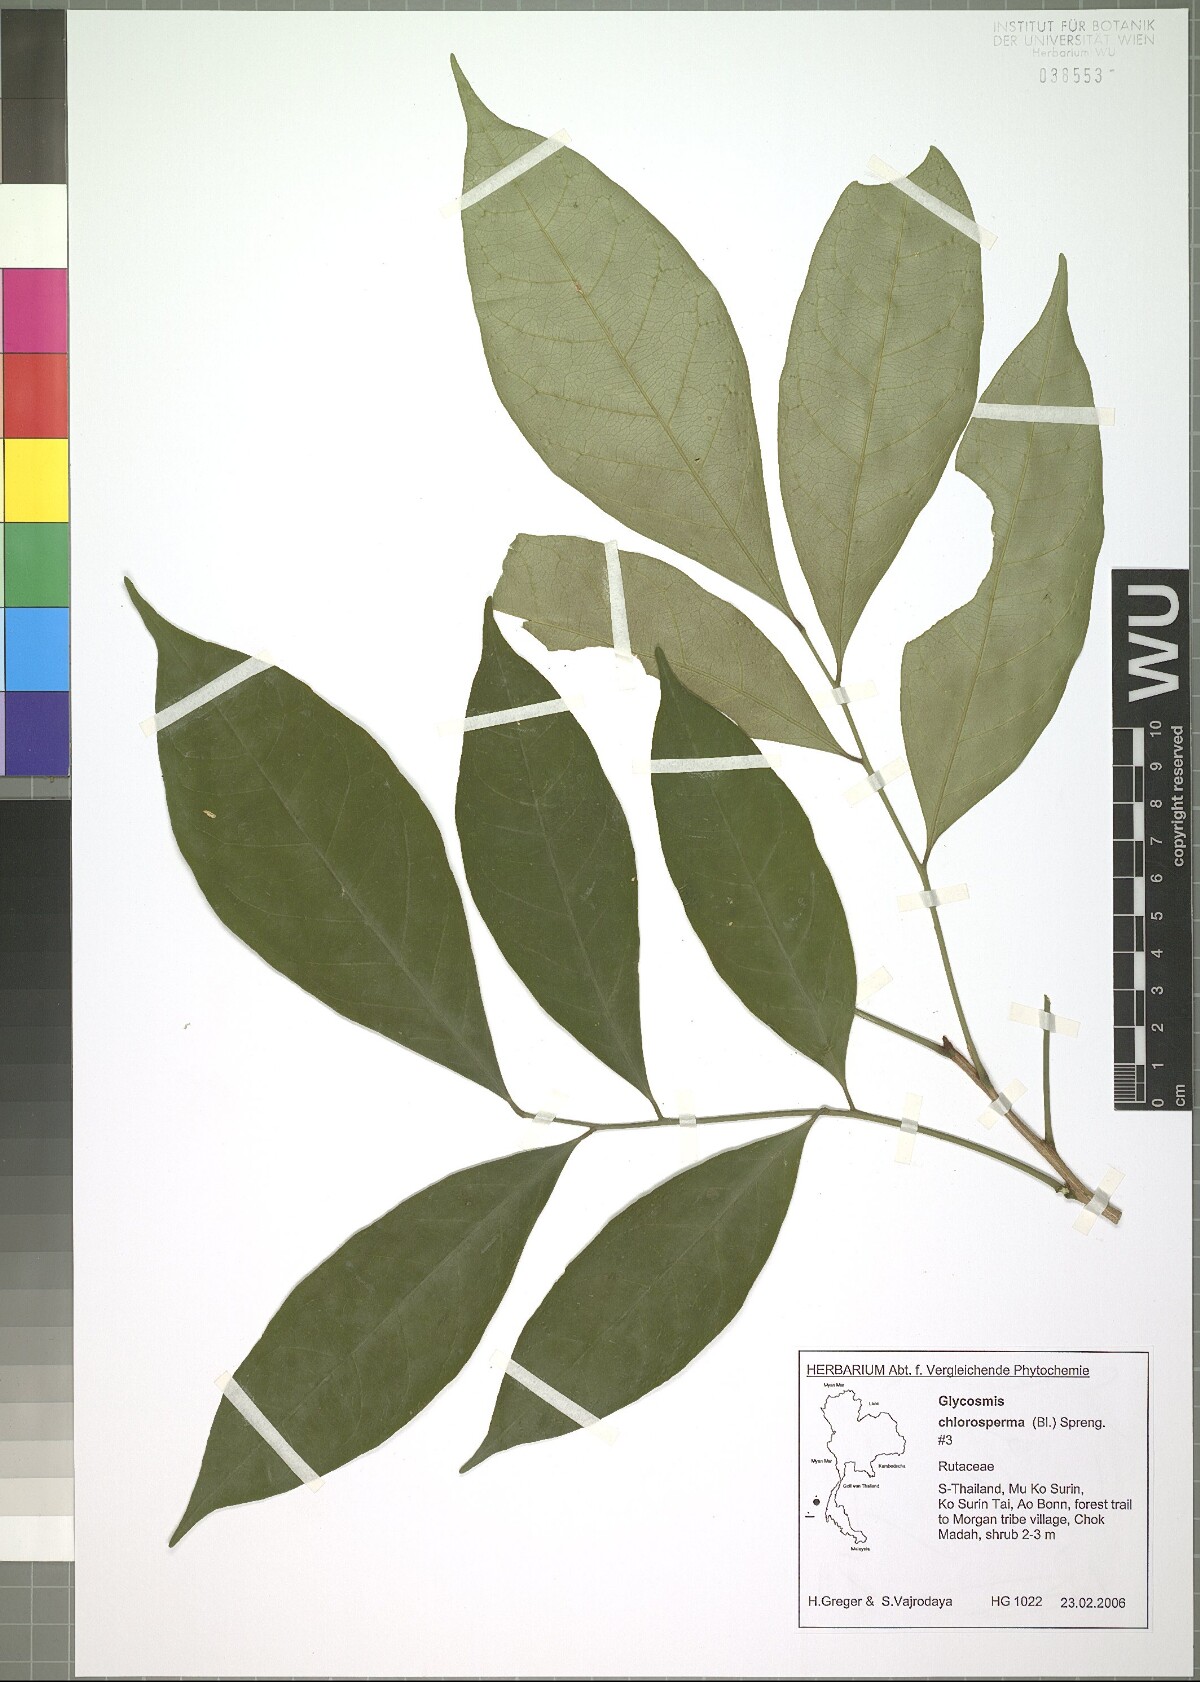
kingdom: Plantae
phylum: Tracheophyta
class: Magnoliopsida
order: Sapindales
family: Rutaceae
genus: Glycosmis
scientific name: Glycosmis chlorosperma
